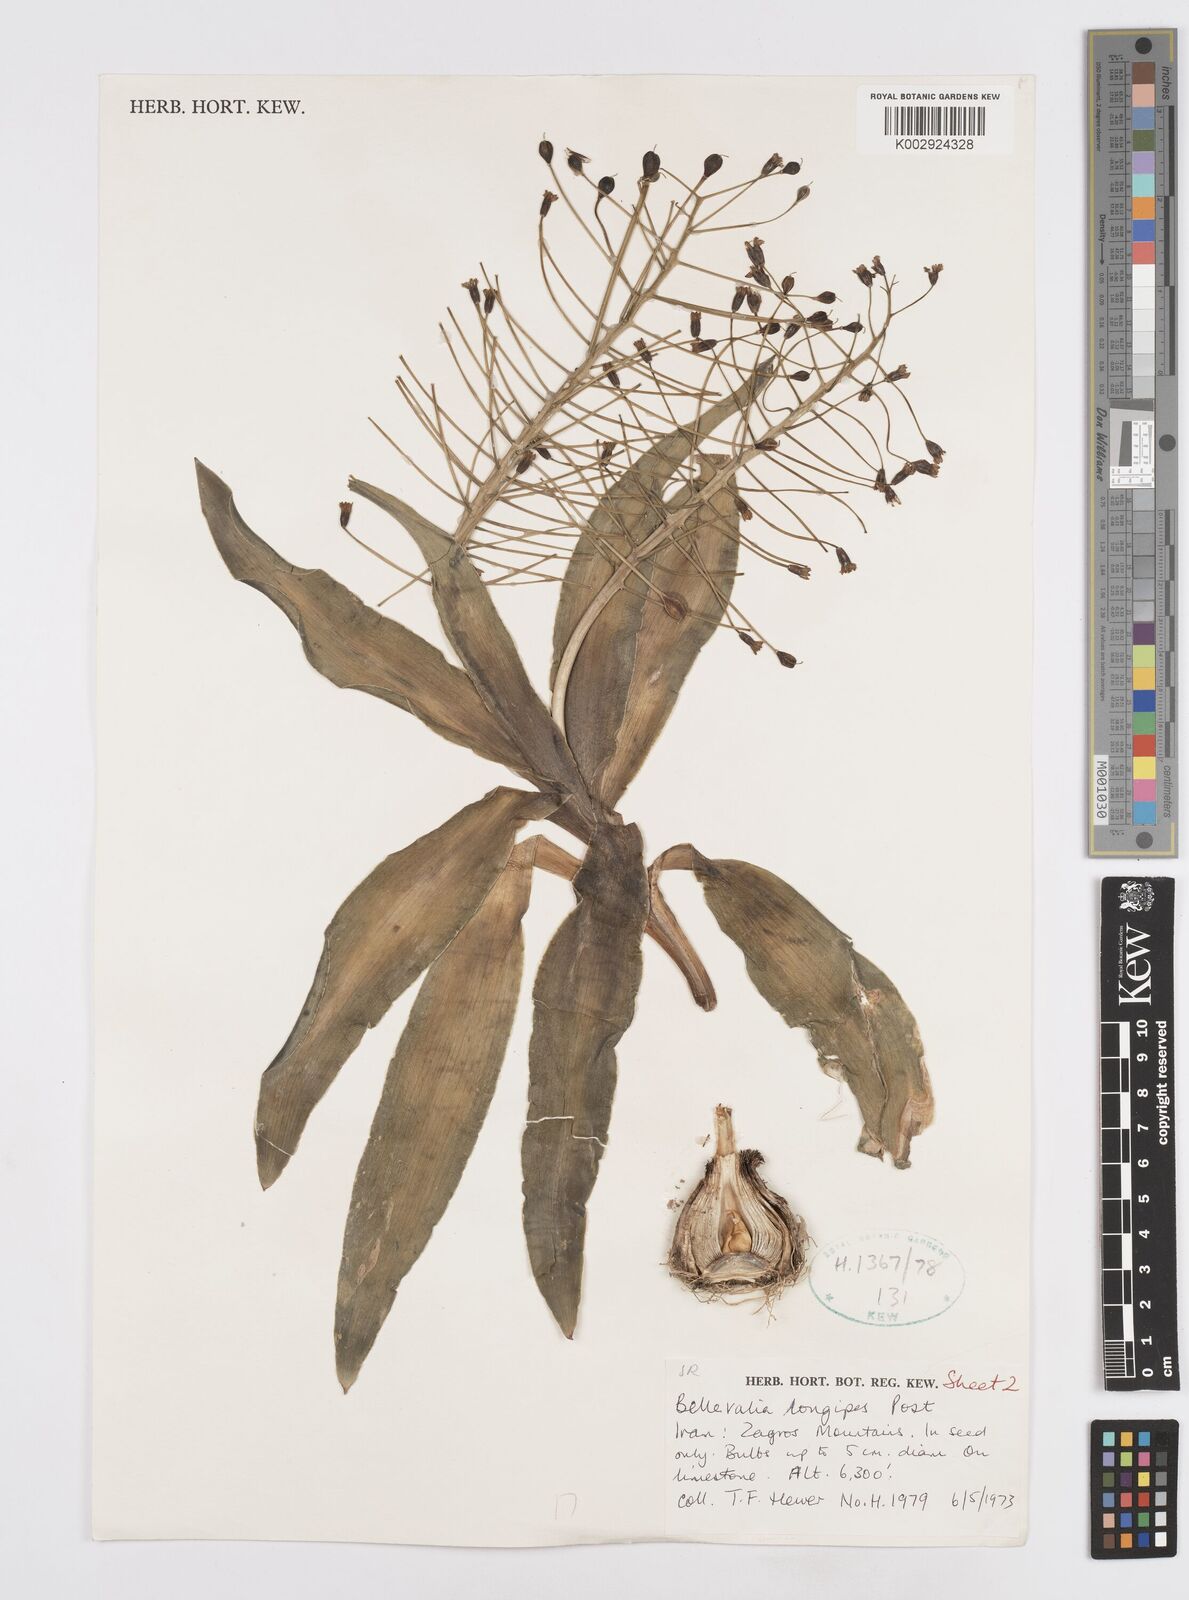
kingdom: Plantae
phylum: Tracheophyta
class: Liliopsida
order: Asparagales
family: Asparagaceae
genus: Bellevalia
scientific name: Bellevalia longipes
